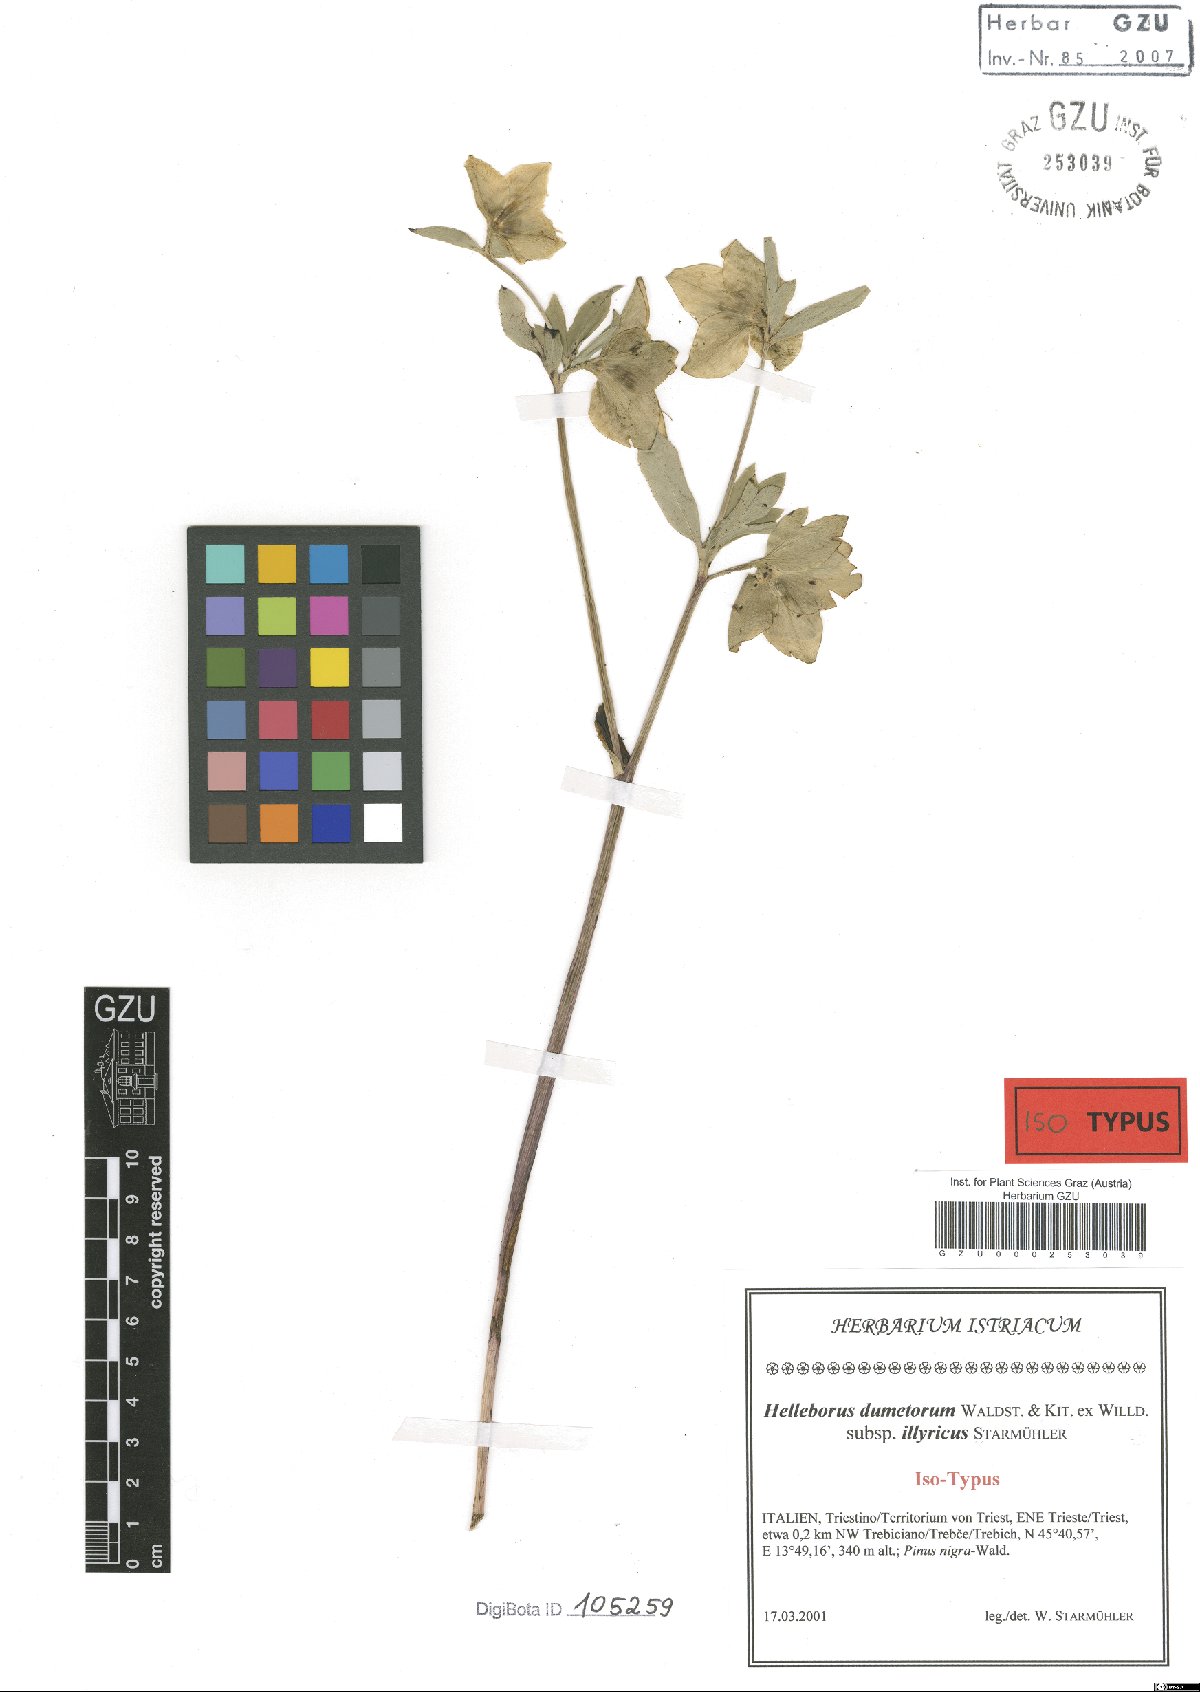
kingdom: Plantae
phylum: Tracheophyta
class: Magnoliopsida
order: Ranunculales
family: Ranunculaceae
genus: Helleborus
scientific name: Helleborus dumetorum
